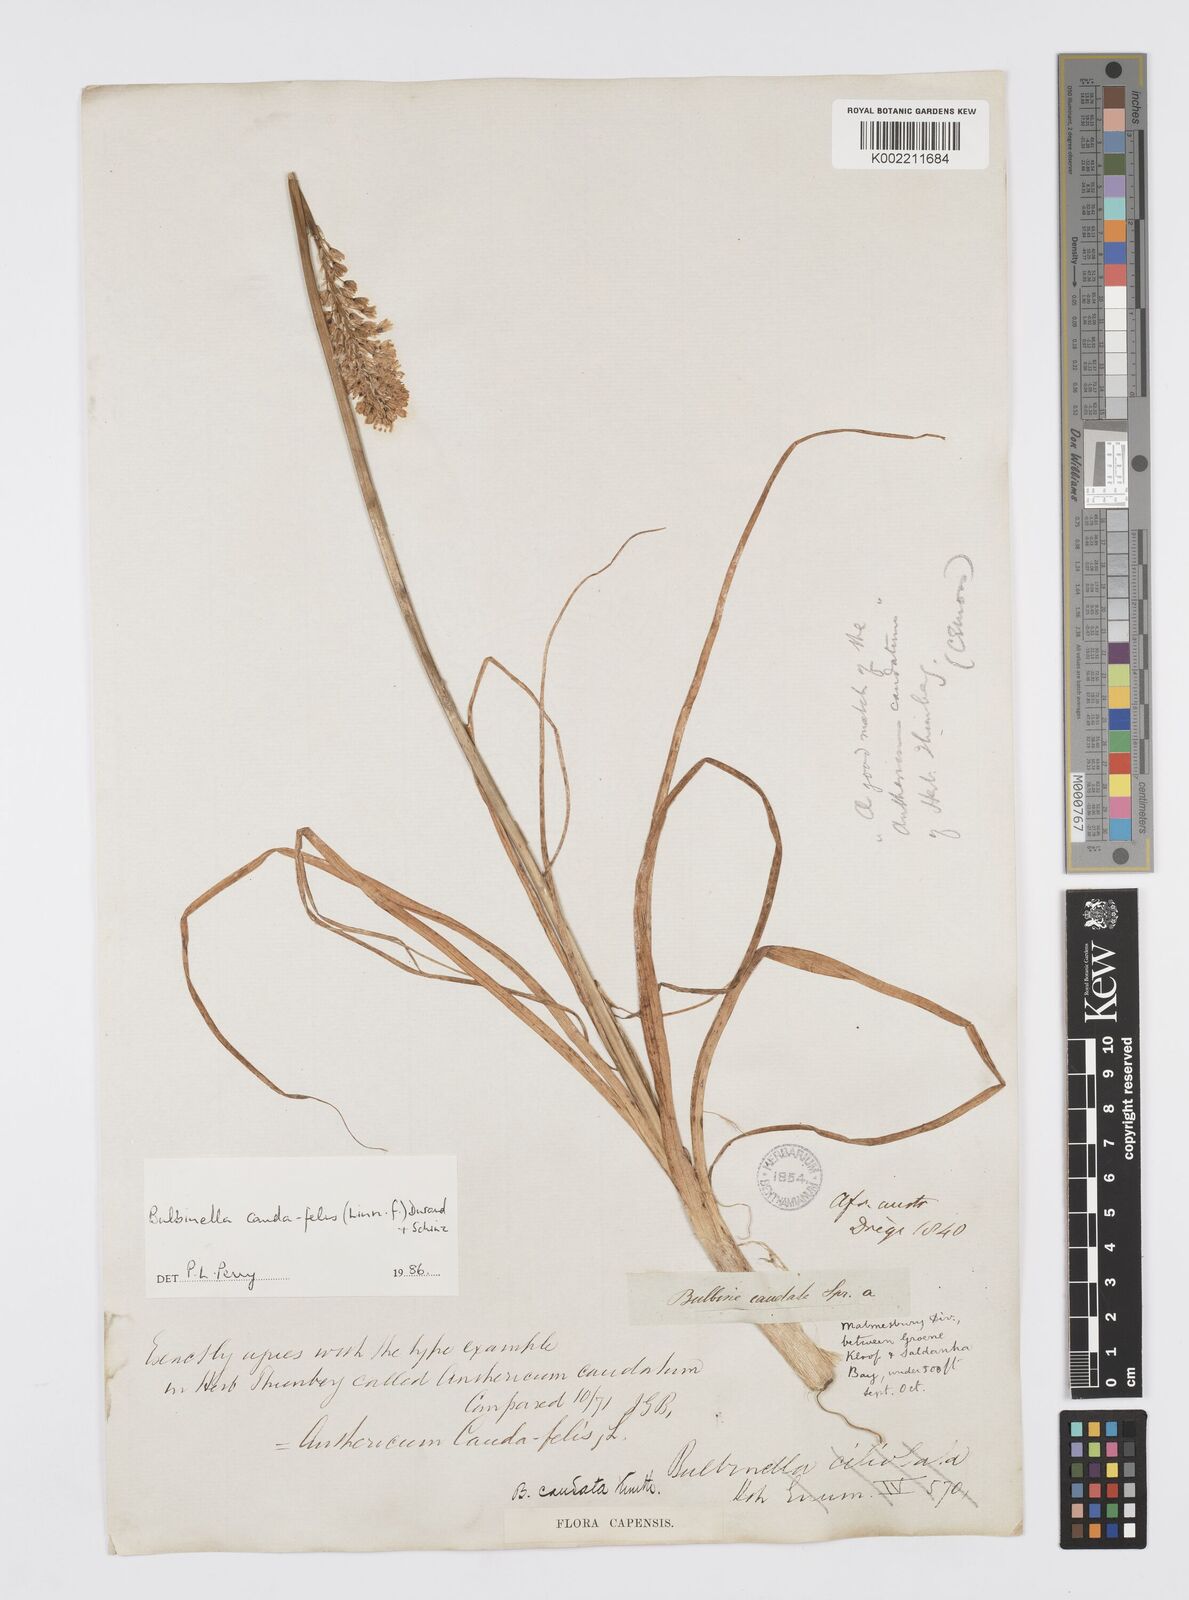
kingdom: Plantae
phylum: Tracheophyta
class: Liliopsida
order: Asparagales
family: Asphodelaceae
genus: Bulbinella
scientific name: Bulbinella cauda-felis
